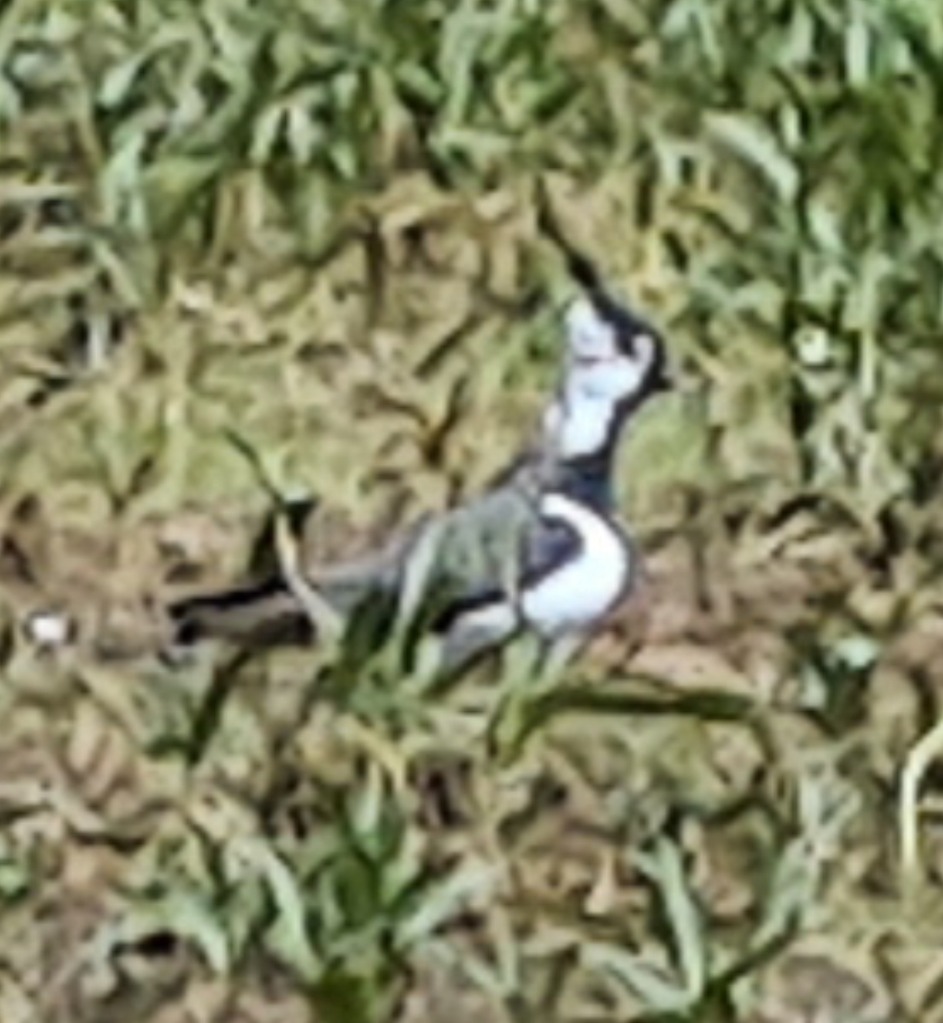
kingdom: Animalia
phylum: Chordata
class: Aves
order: Passeriformes
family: Motacillidae
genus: Motacilla
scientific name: Motacilla alba
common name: Hvid vipstjert
